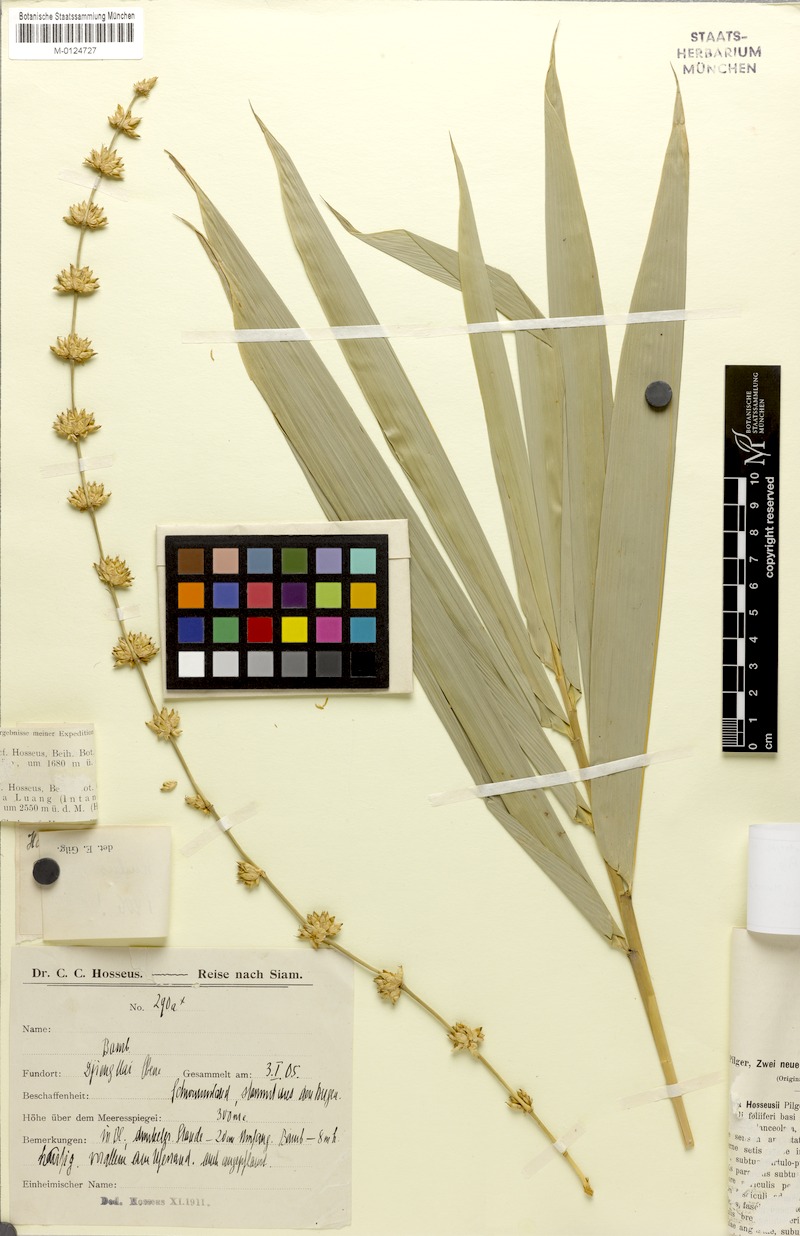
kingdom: Plantae
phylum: Tracheophyta
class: Liliopsida
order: Poales
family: Poaceae
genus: Dendrocalamus
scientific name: Dendrocalamus brandisii
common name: Velvetleaf bamboo
